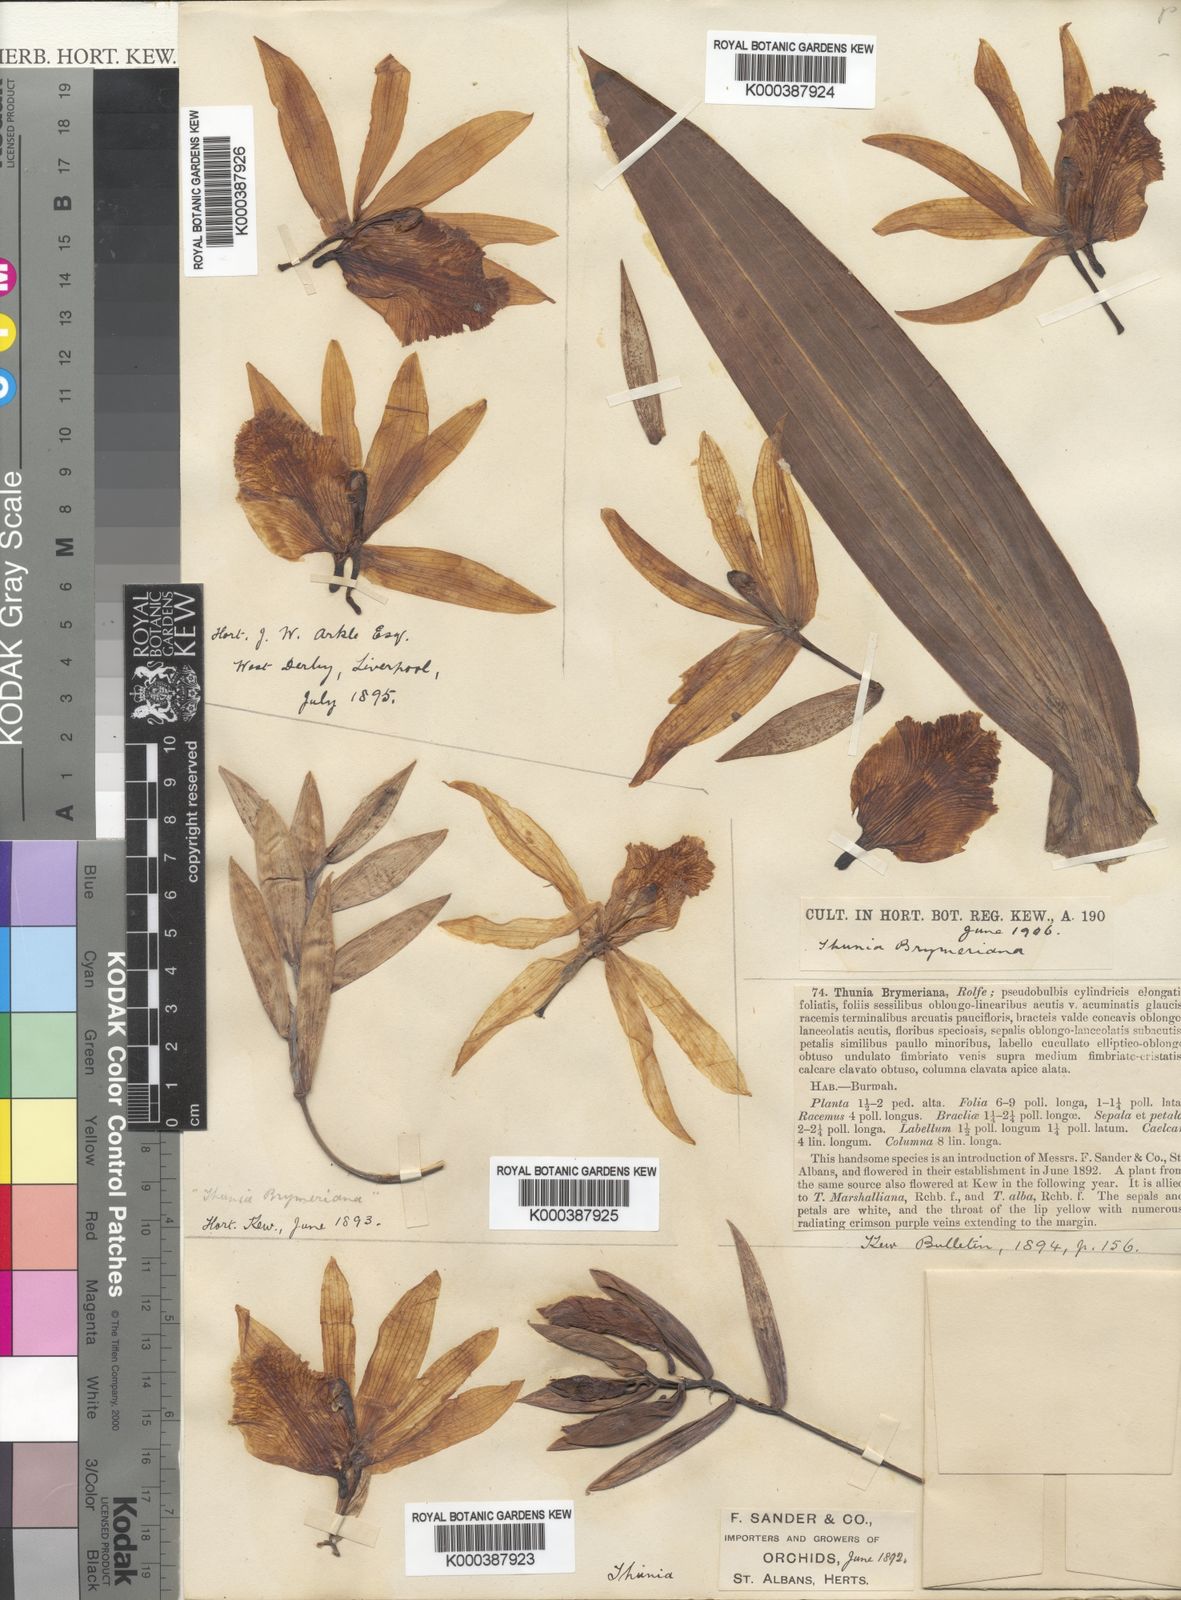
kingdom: Plantae
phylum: Tracheophyta
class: Liliopsida
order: Asparagales
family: Orchidaceae
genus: Thunia
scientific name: Thunia brymeriana
